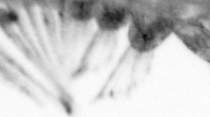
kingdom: Animalia
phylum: Annelida
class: Polychaeta
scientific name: Polychaeta
